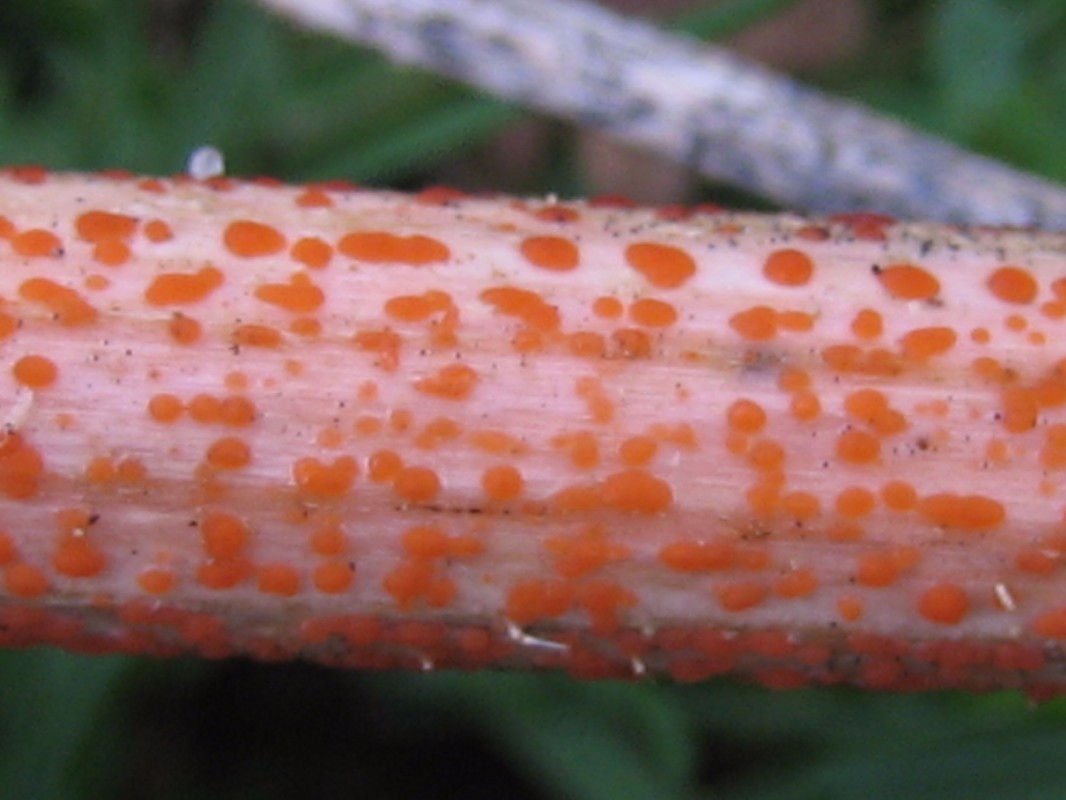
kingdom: Fungi
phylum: Ascomycota
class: Leotiomycetes
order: Helotiales
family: Calloriaceae
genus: Calloria
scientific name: Calloria urticae
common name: nælde-orangeskive
